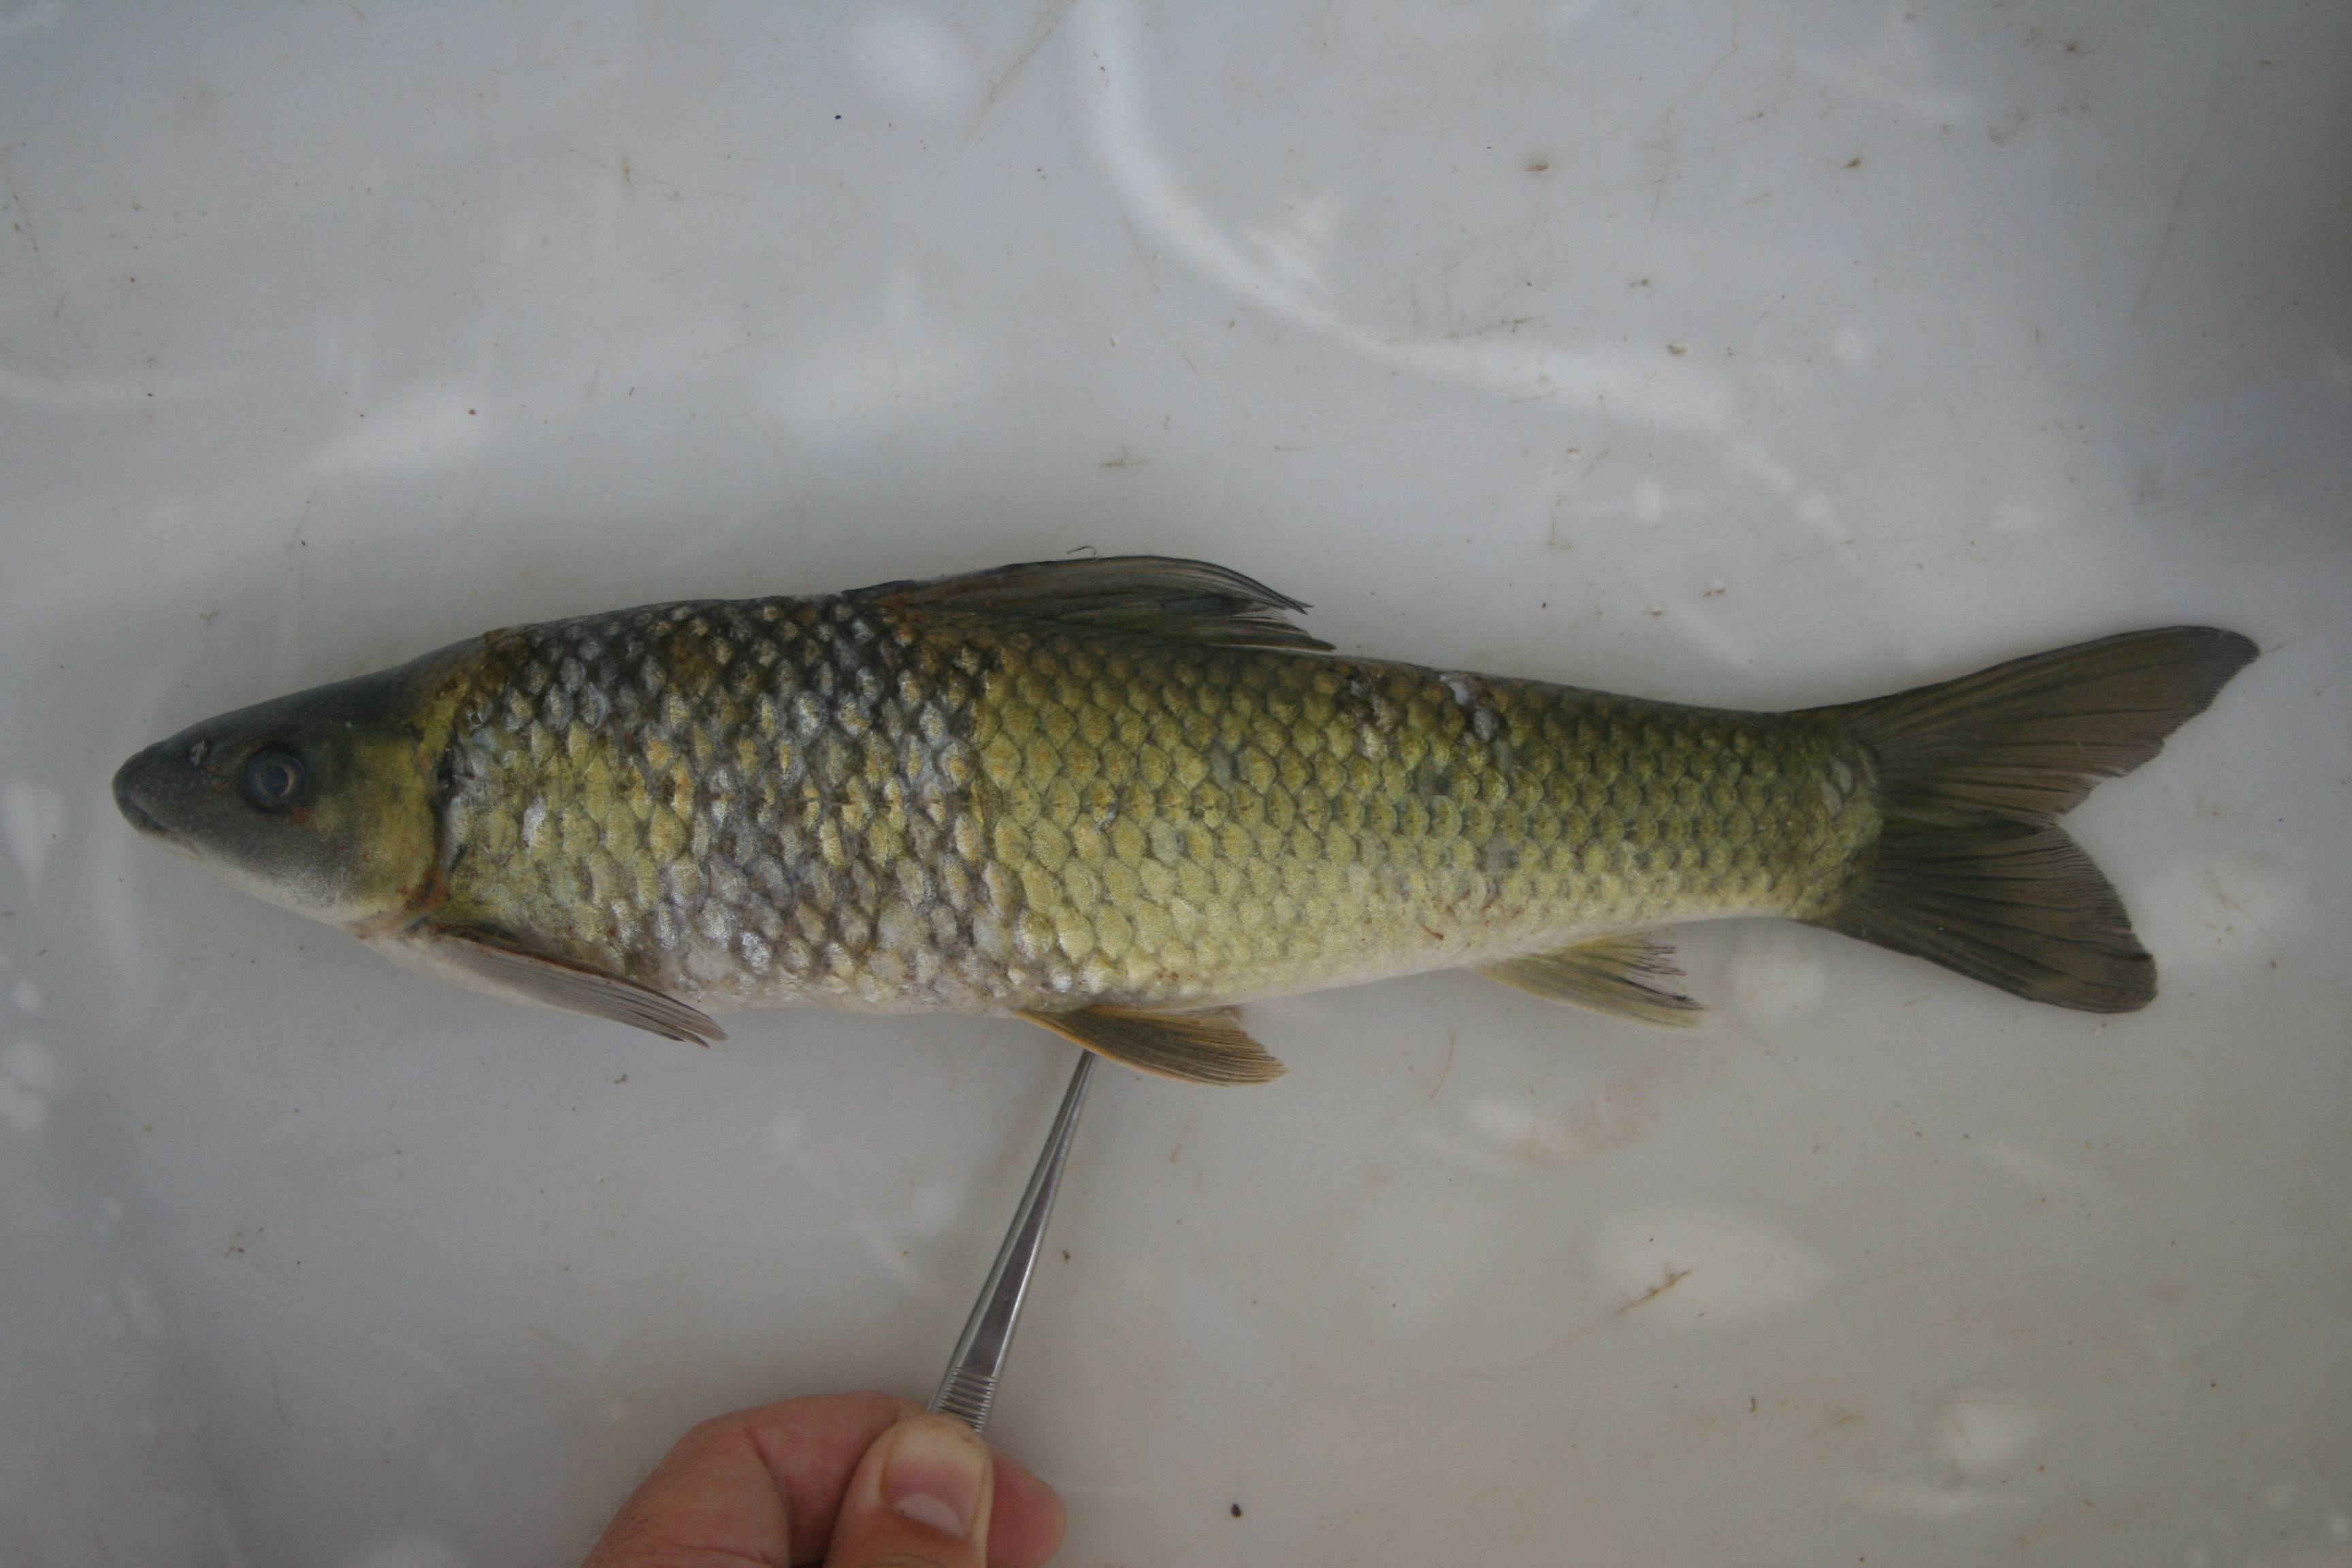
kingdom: Animalia
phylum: Chordata
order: Cypriniformes
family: Cyprinidae
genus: Labeo
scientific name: Labeo
